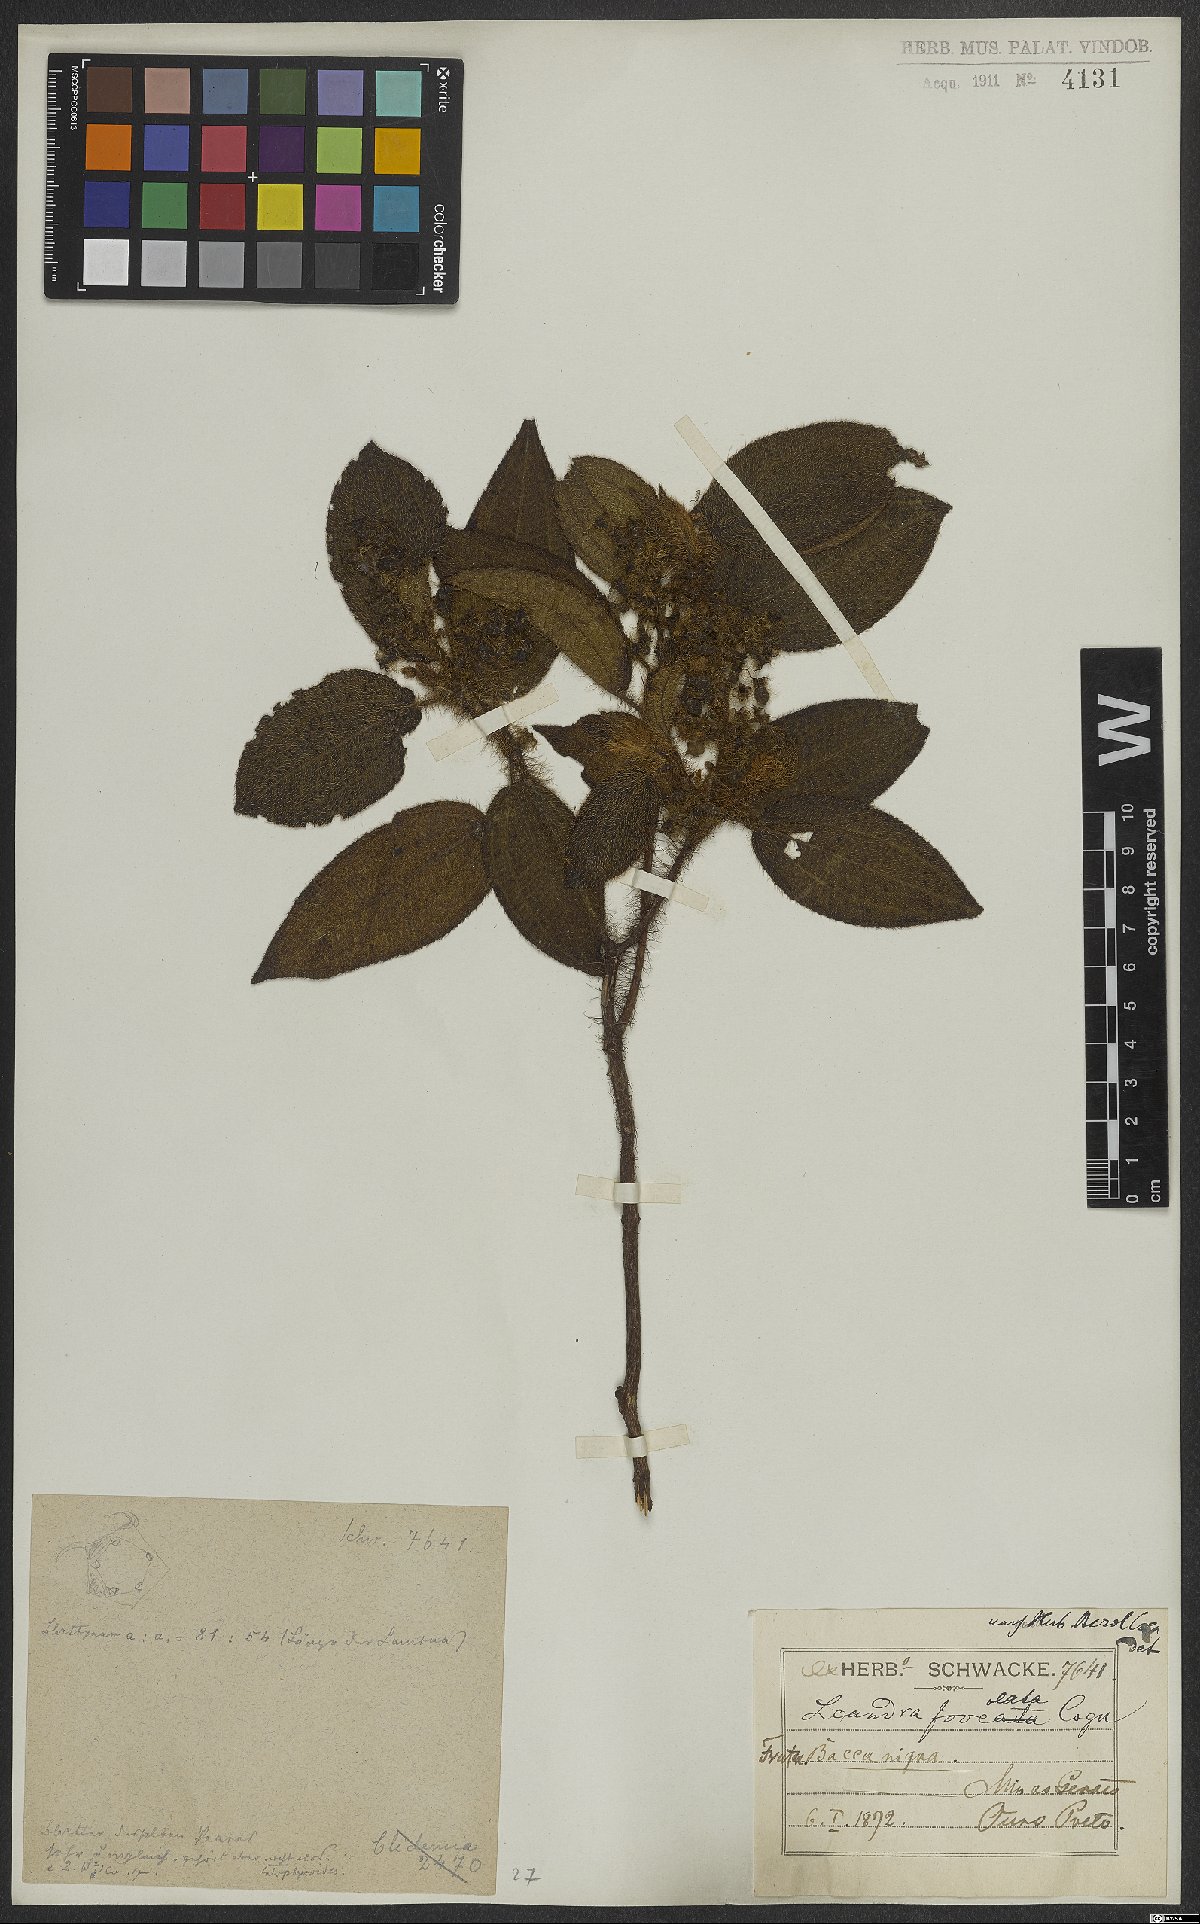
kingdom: Plantae
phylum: Tracheophyta
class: Magnoliopsida
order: Myrtales
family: Melastomataceae
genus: Miconia
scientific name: Miconia leafoveolata
